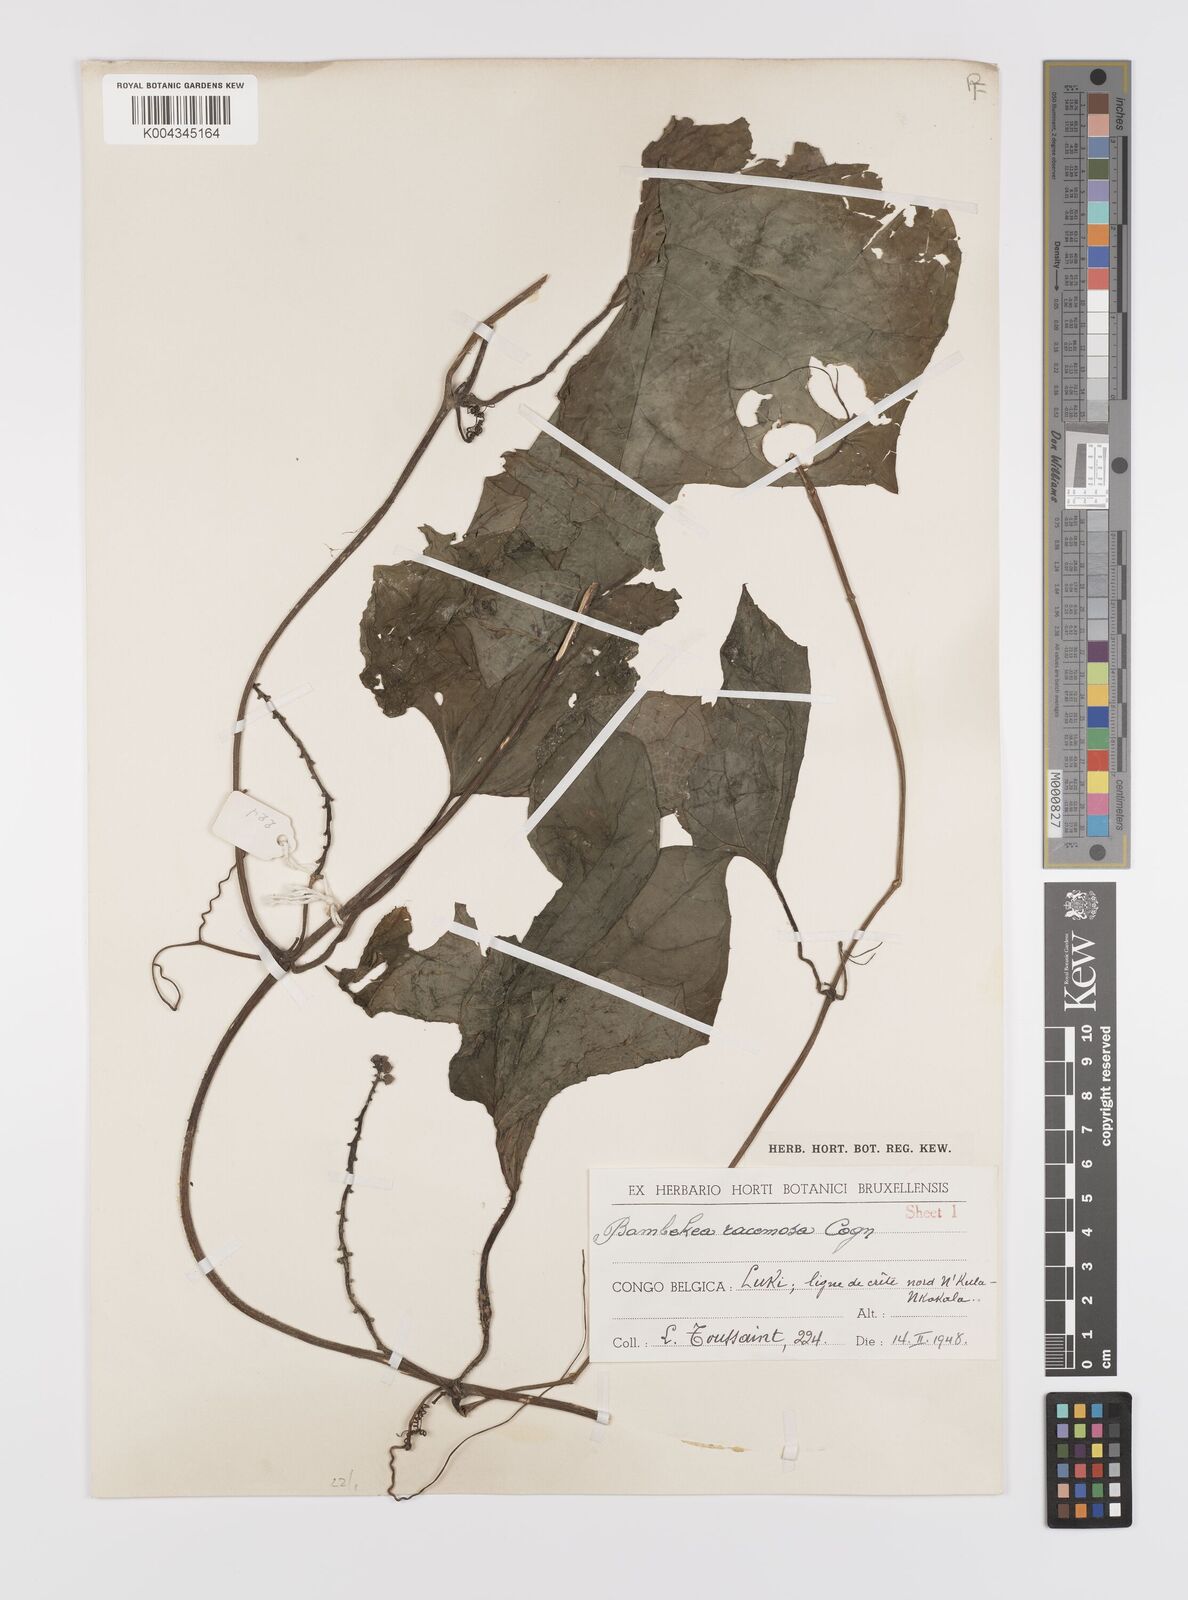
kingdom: Plantae
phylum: Tracheophyta
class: Magnoliopsida
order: Cucurbitales
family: Cucurbitaceae
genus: Bambekea
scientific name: Bambekea racemosa
